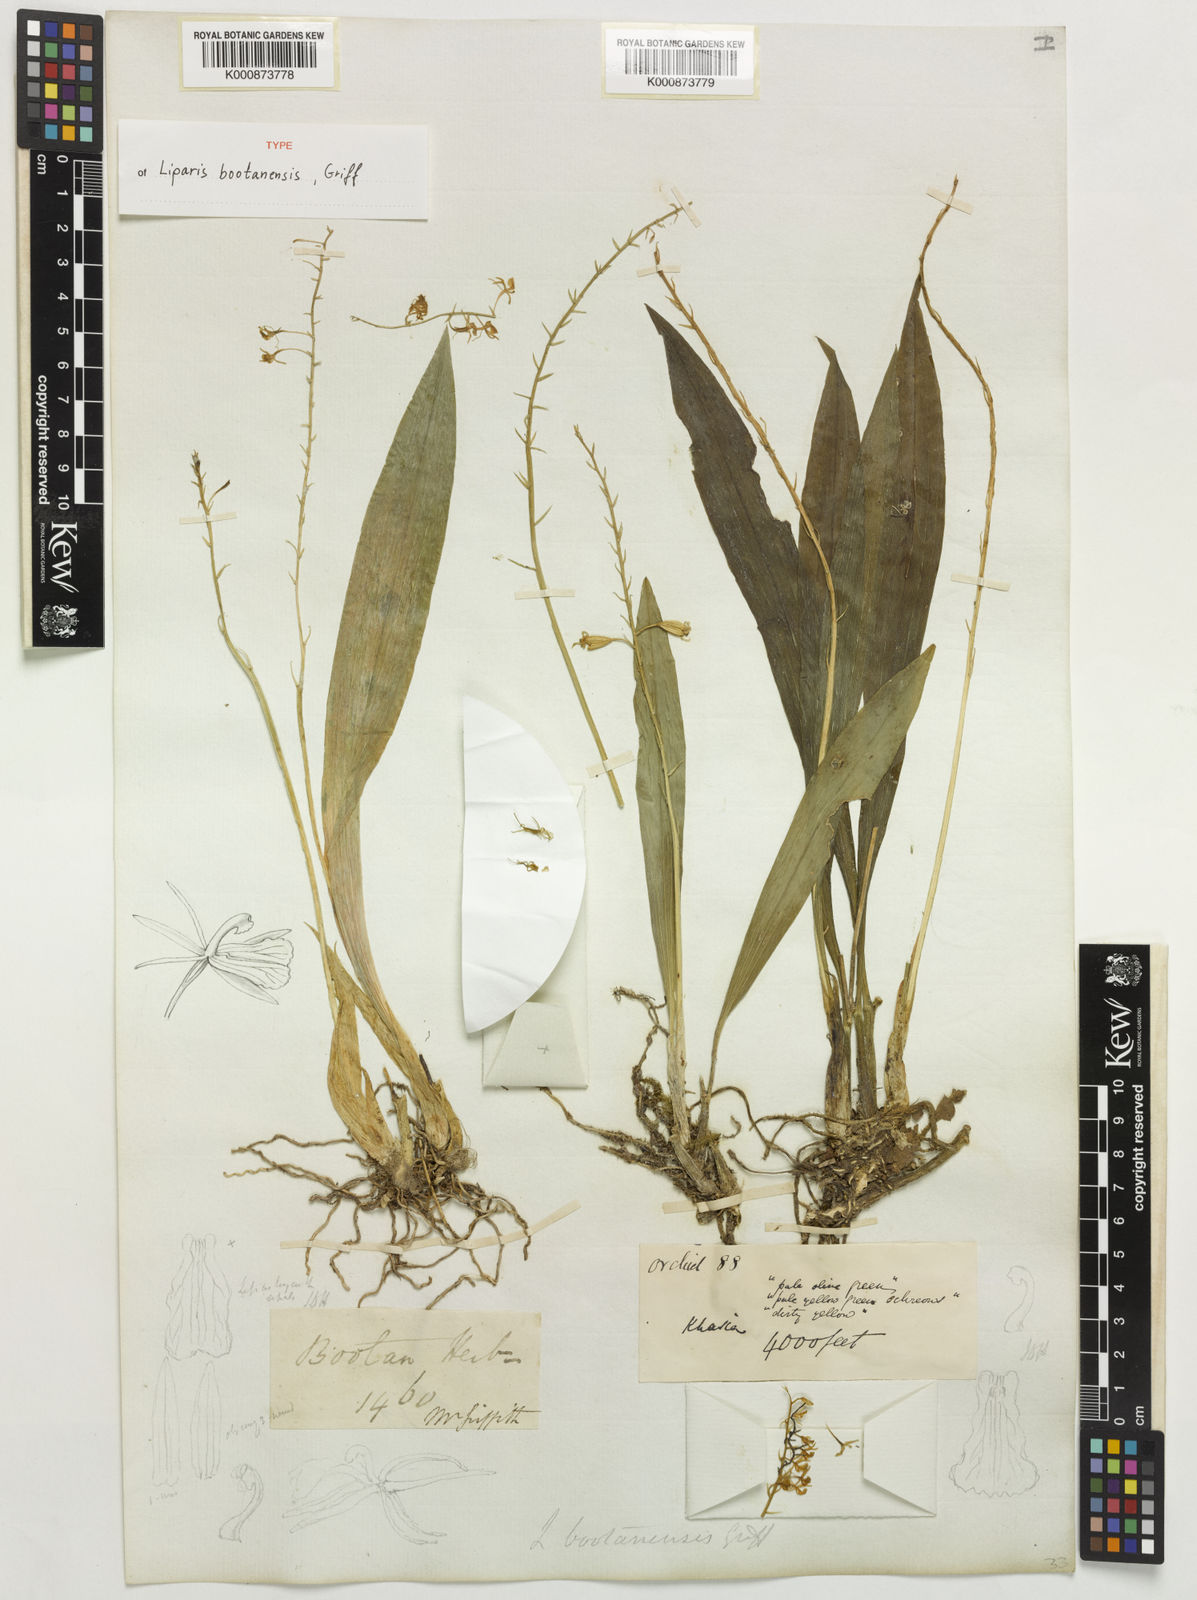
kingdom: Plantae
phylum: Tracheophyta
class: Liliopsida
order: Asparagales
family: Orchidaceae
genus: Liparis
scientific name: Liparis bootanensis
